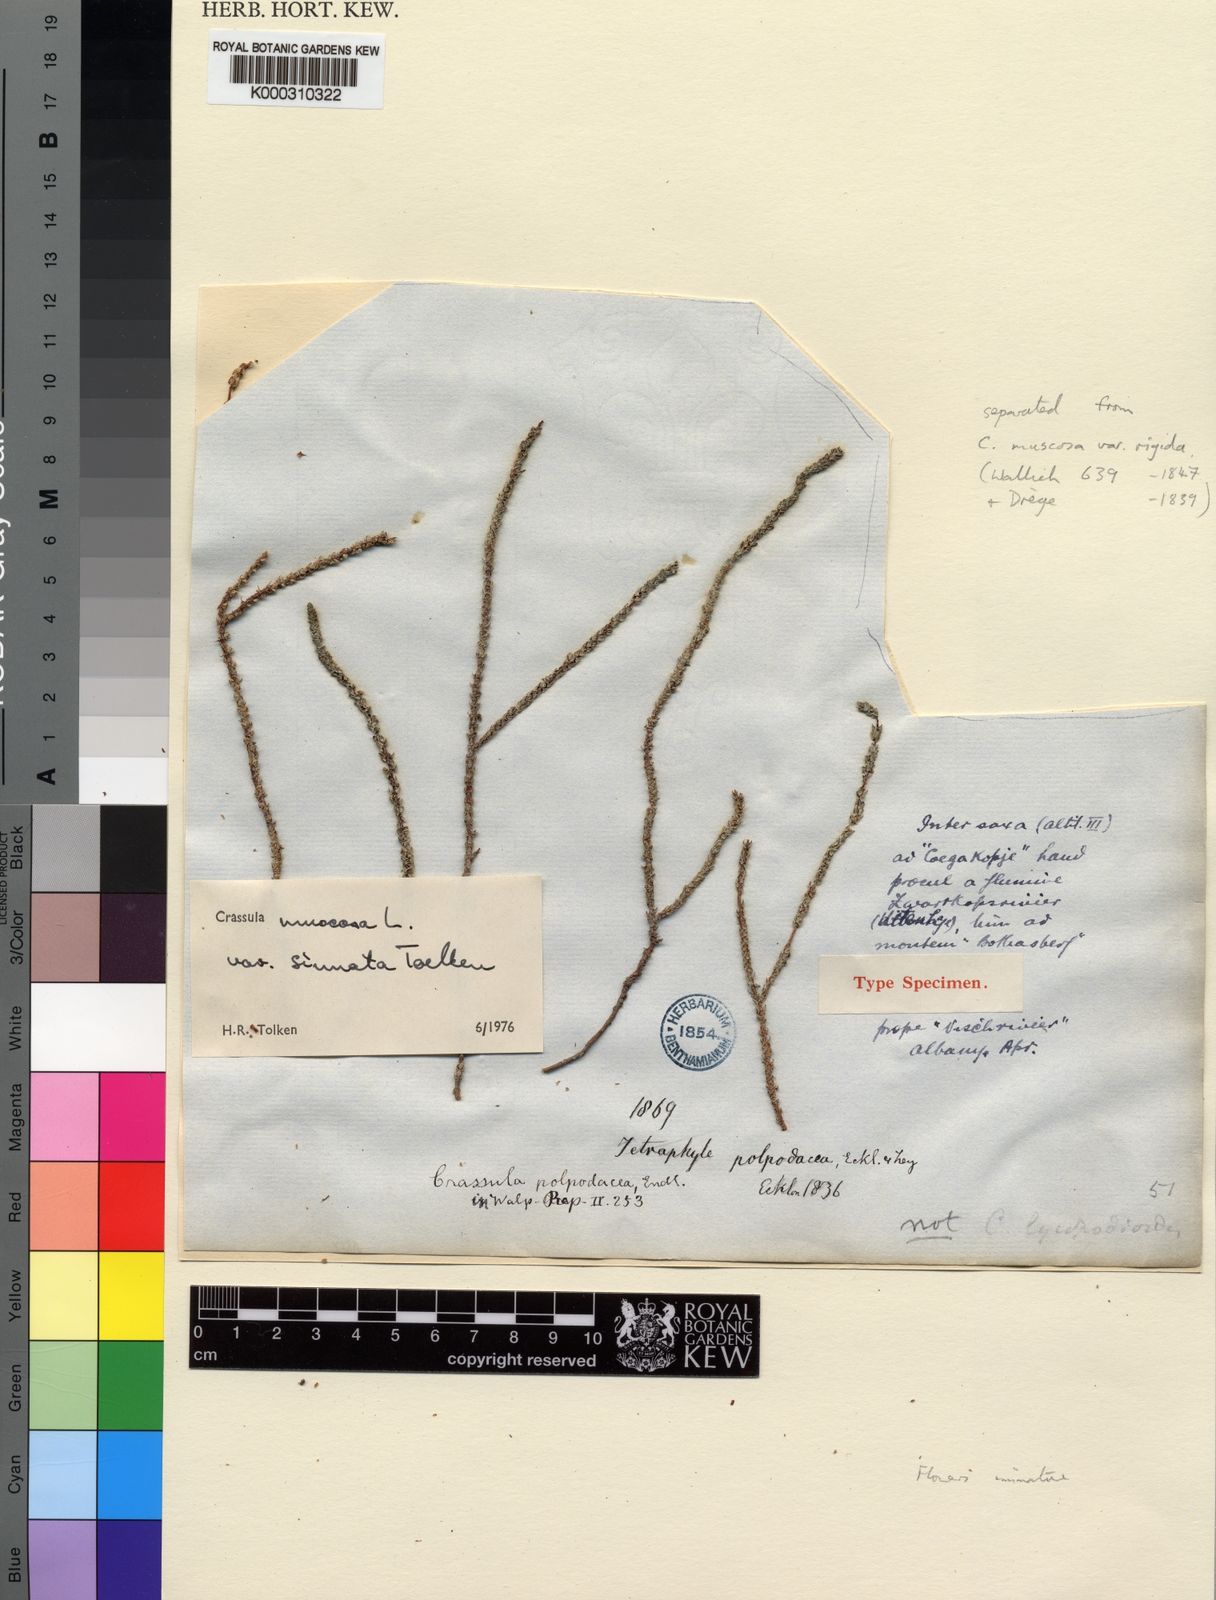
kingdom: Plantae
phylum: Tracheophyta
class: Magnoliopsida
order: Saxifragales
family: Crassulaceae
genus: Crassula
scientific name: Crassula muscosa
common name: Toy-cypress
